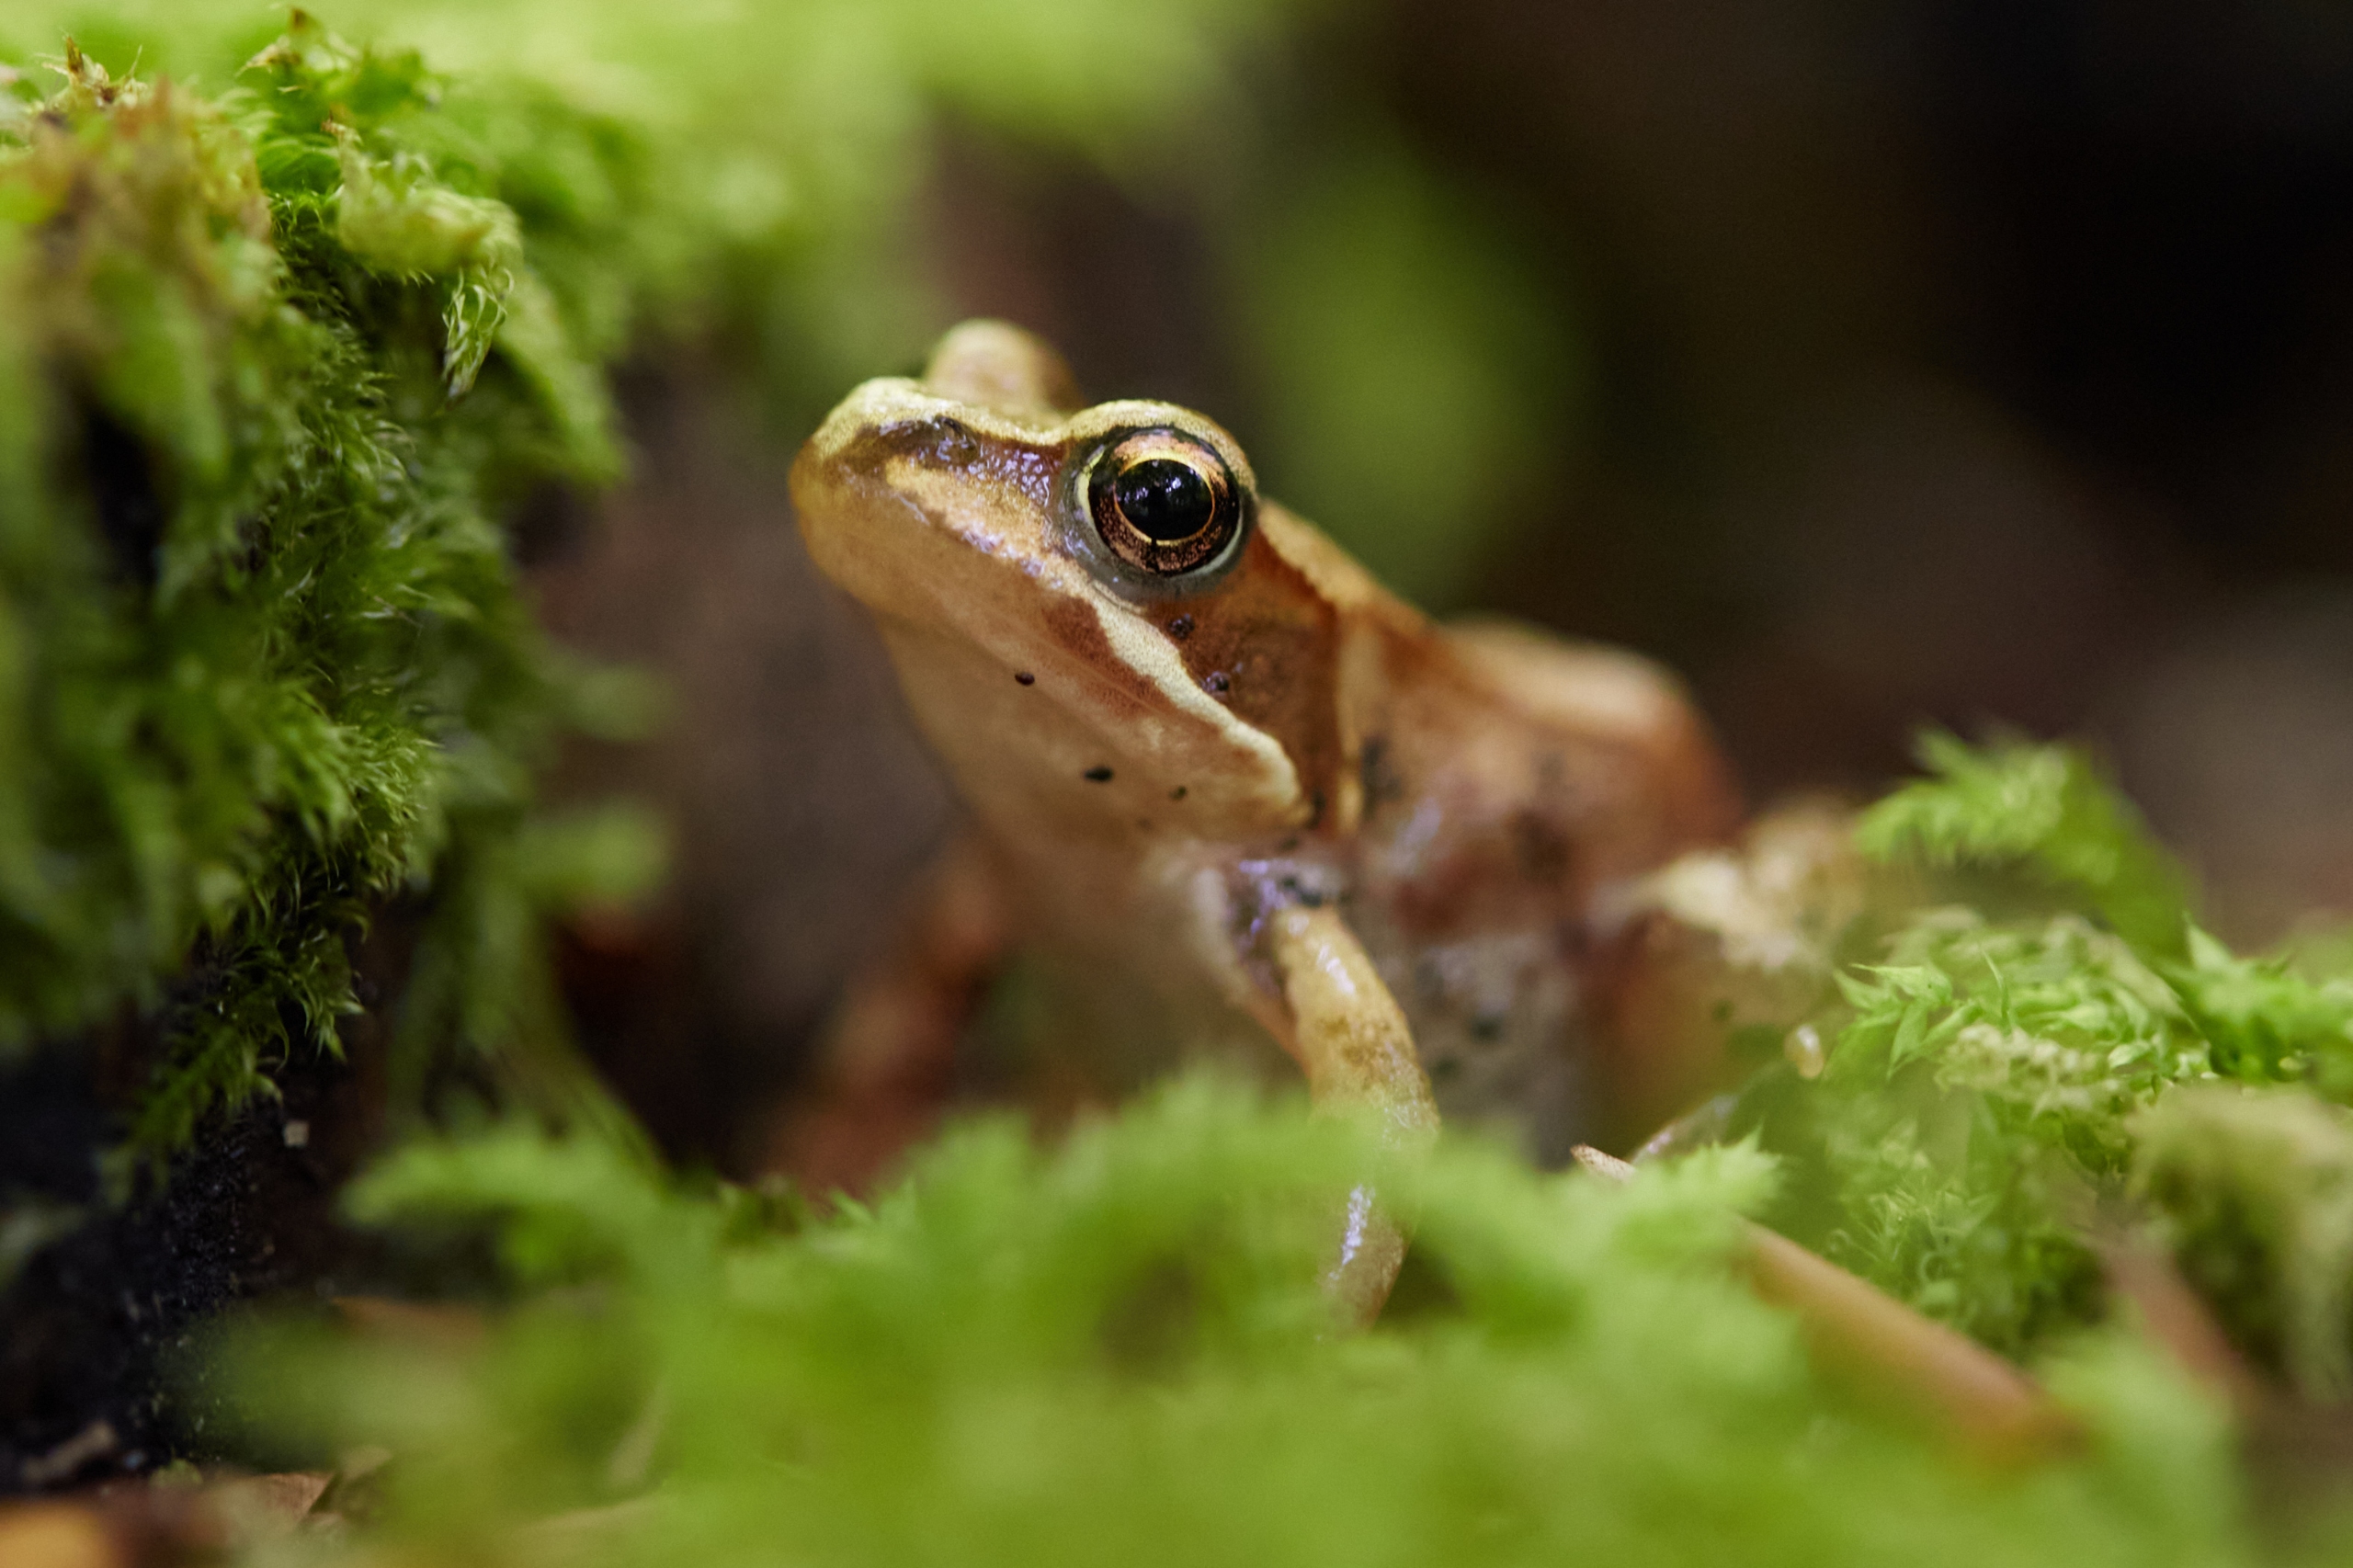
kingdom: Animalia
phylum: Chordata
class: Amphibia
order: Anura
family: Ranidae
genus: Rana
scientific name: Rana temporaria
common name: Butsnudet frø
